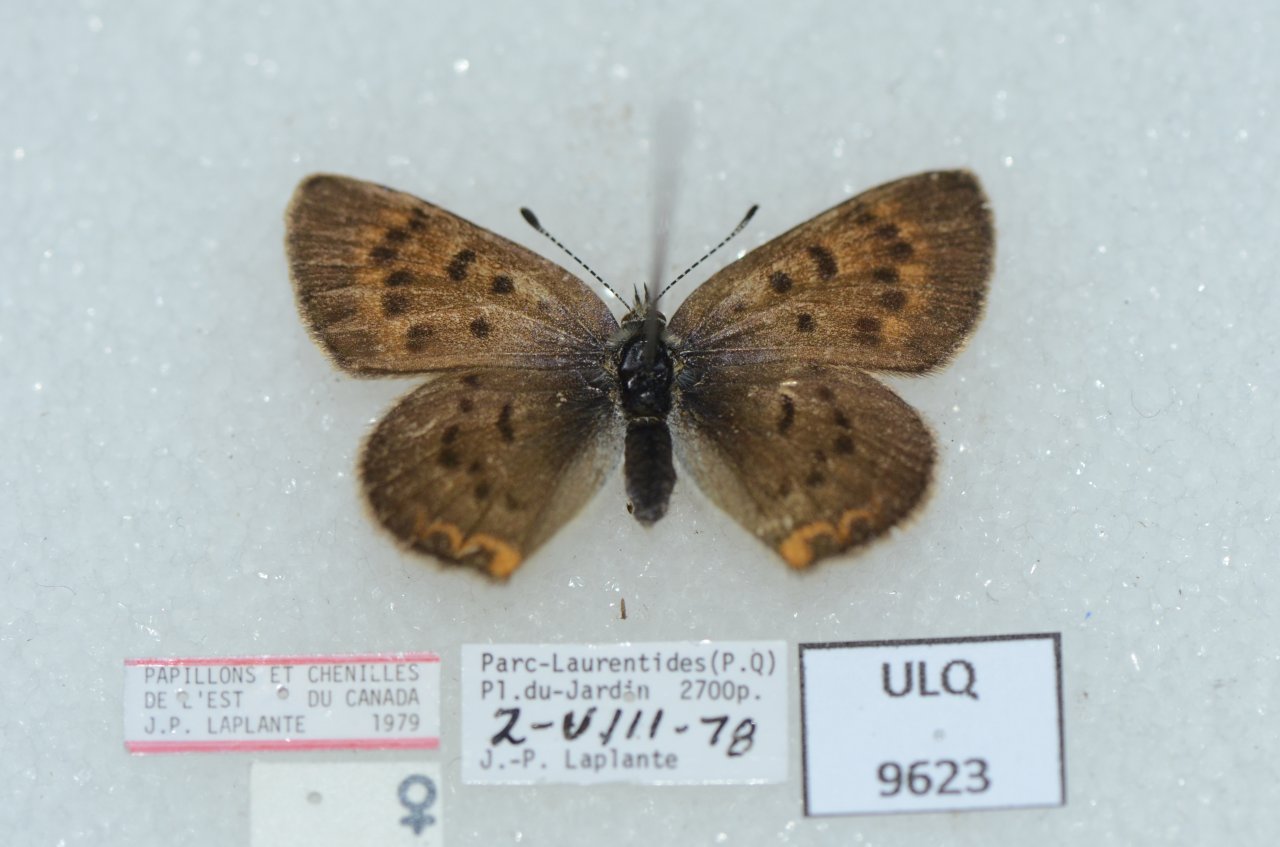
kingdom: Animalia
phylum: Arthropoda
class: Insecta
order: Lepidoptera
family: Lycaenidae
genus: Epidemia
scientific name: Epidemia dorcas
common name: Dorcas Copper
